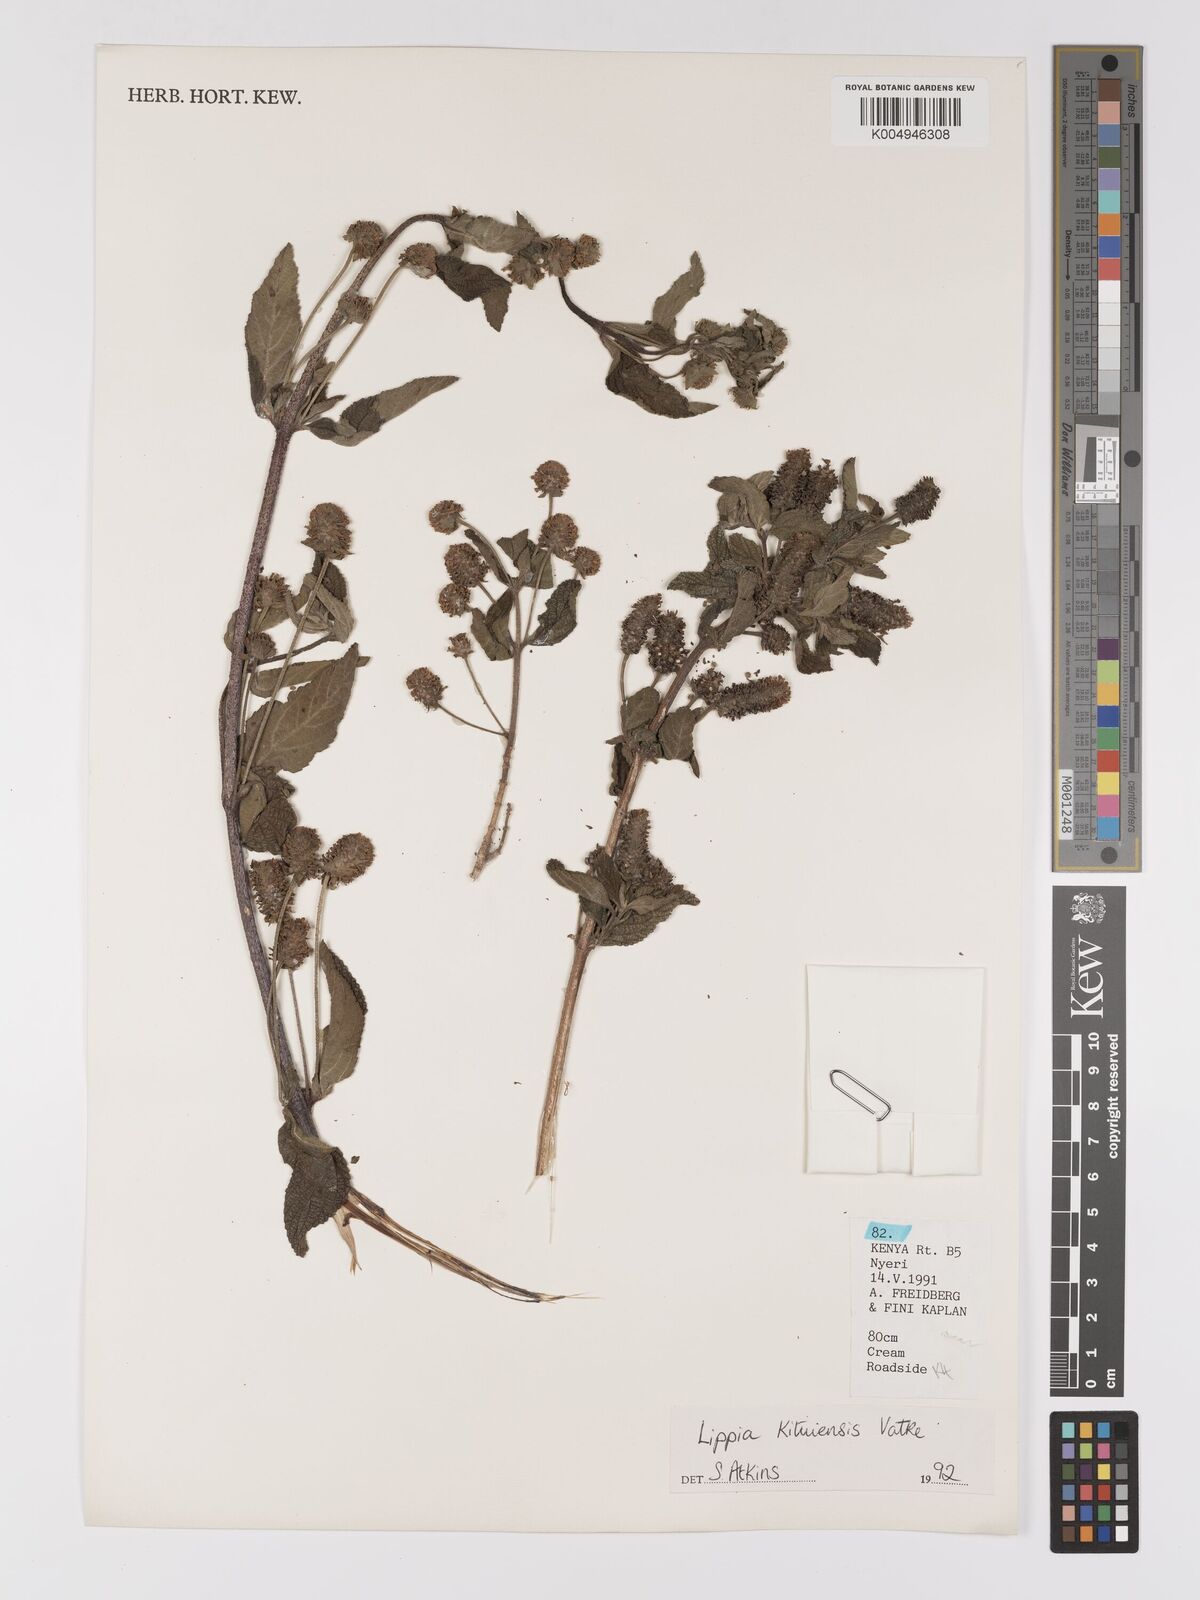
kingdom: Plantae
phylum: Tracheophyta
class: Magnoliopsida
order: Lamiales
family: Verbenaceae
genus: Lippia
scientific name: Lippia kituiensis
